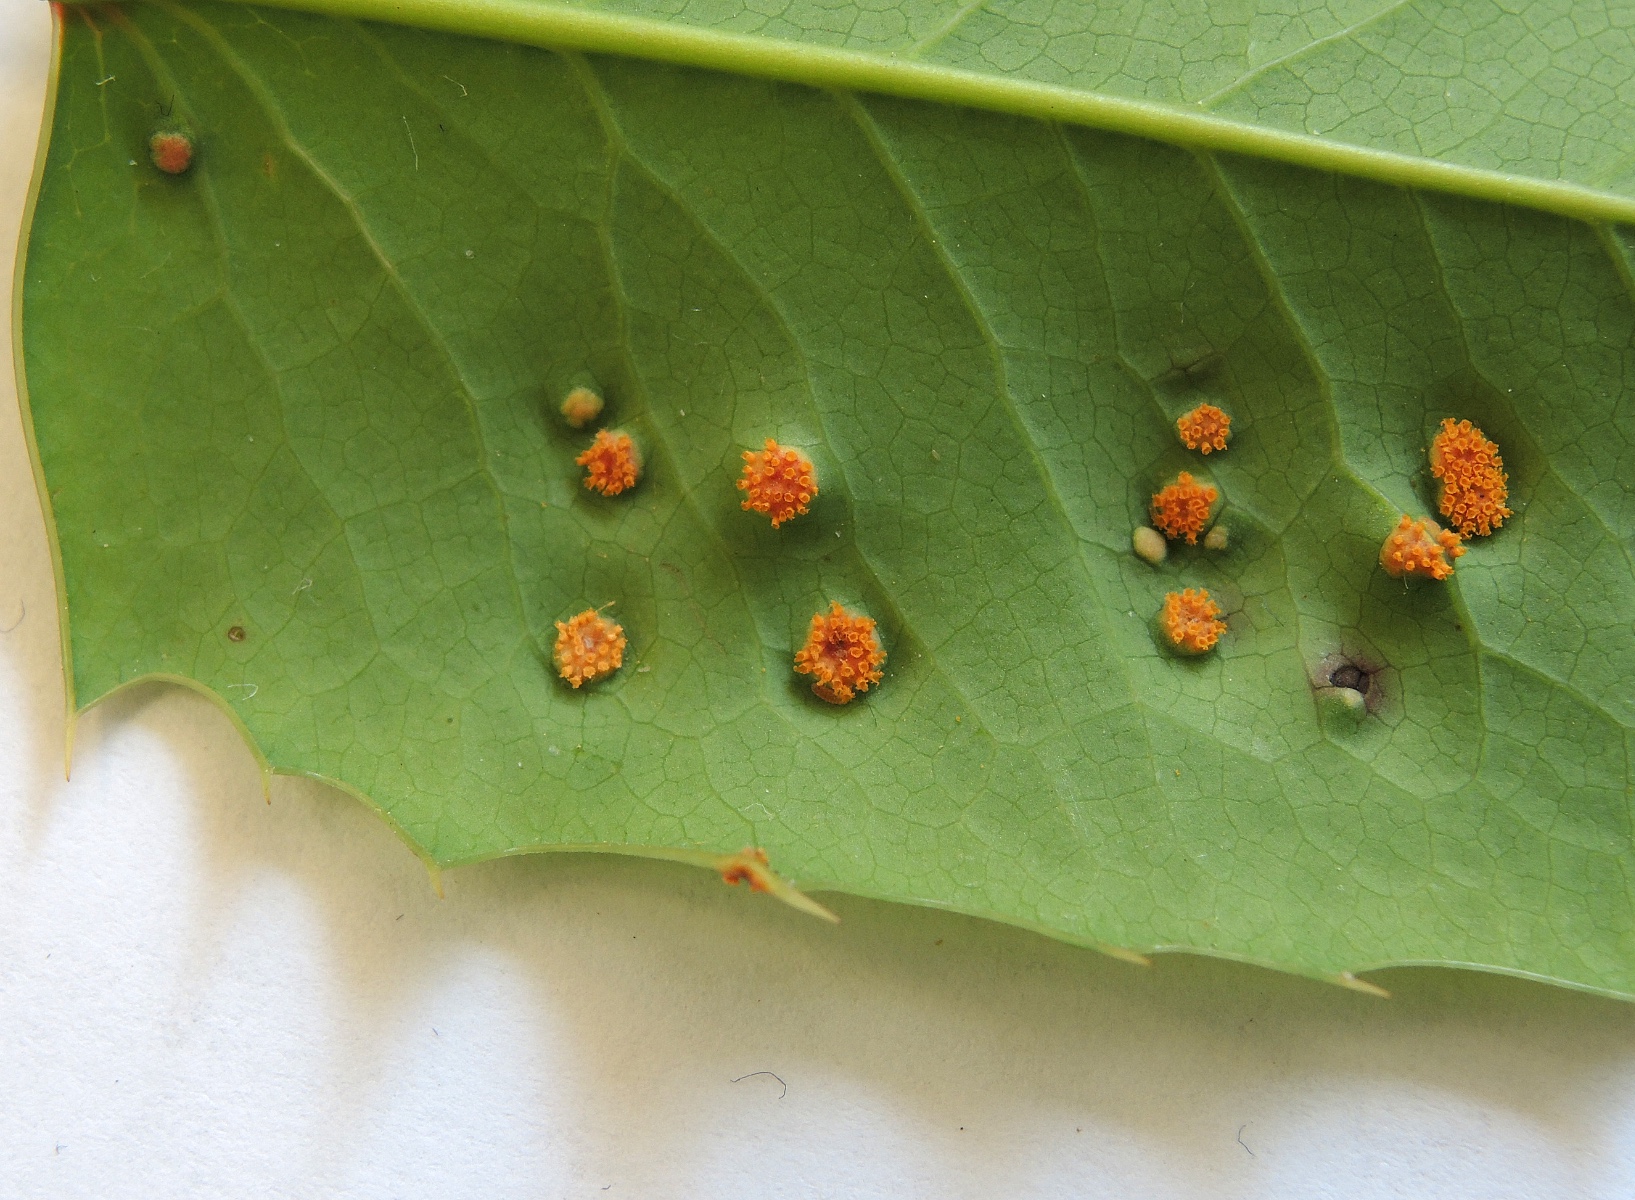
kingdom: Fungi
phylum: Basidiomycota
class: Pucciniomycetes
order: Pucciniales
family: Pucciniaceae
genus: Cumminsiella
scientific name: Cumminsiella mirabilissima
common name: mahonierust
